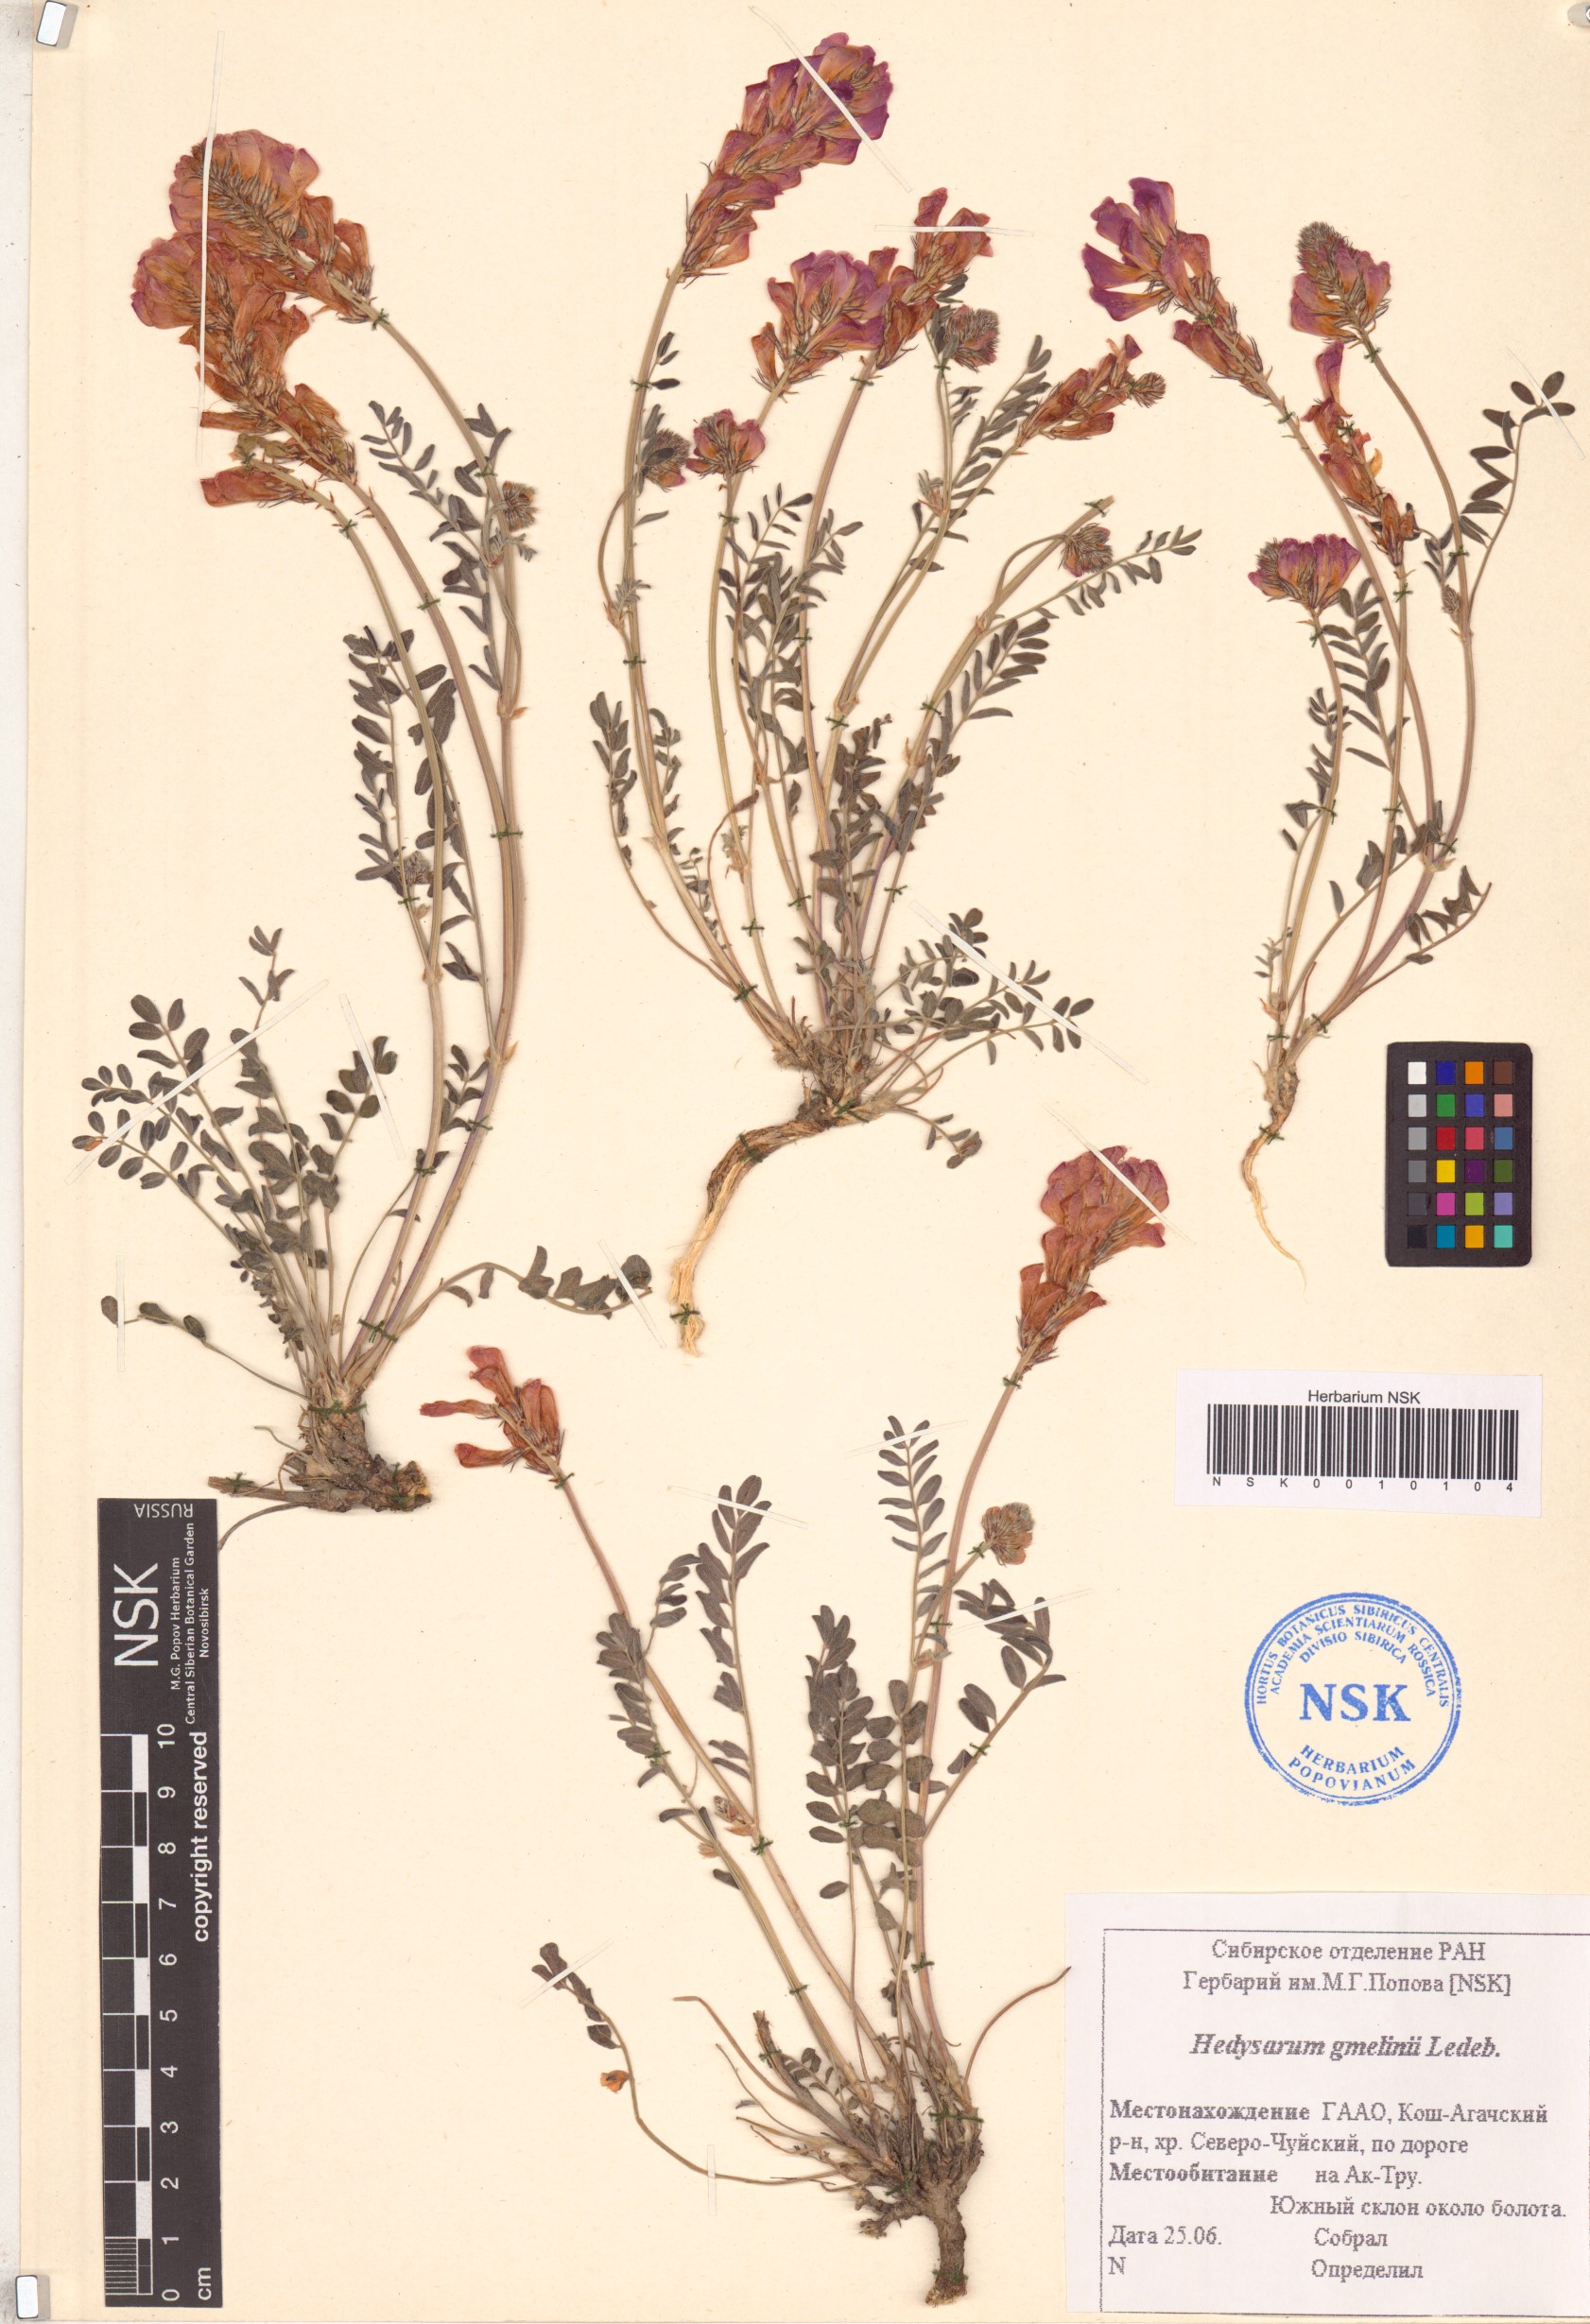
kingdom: Plantae
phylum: Tracheophyta
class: Magnoliopsida
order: Fabales
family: Fabaceae
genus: Hedysarum
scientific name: Hedysarum gmelinii
